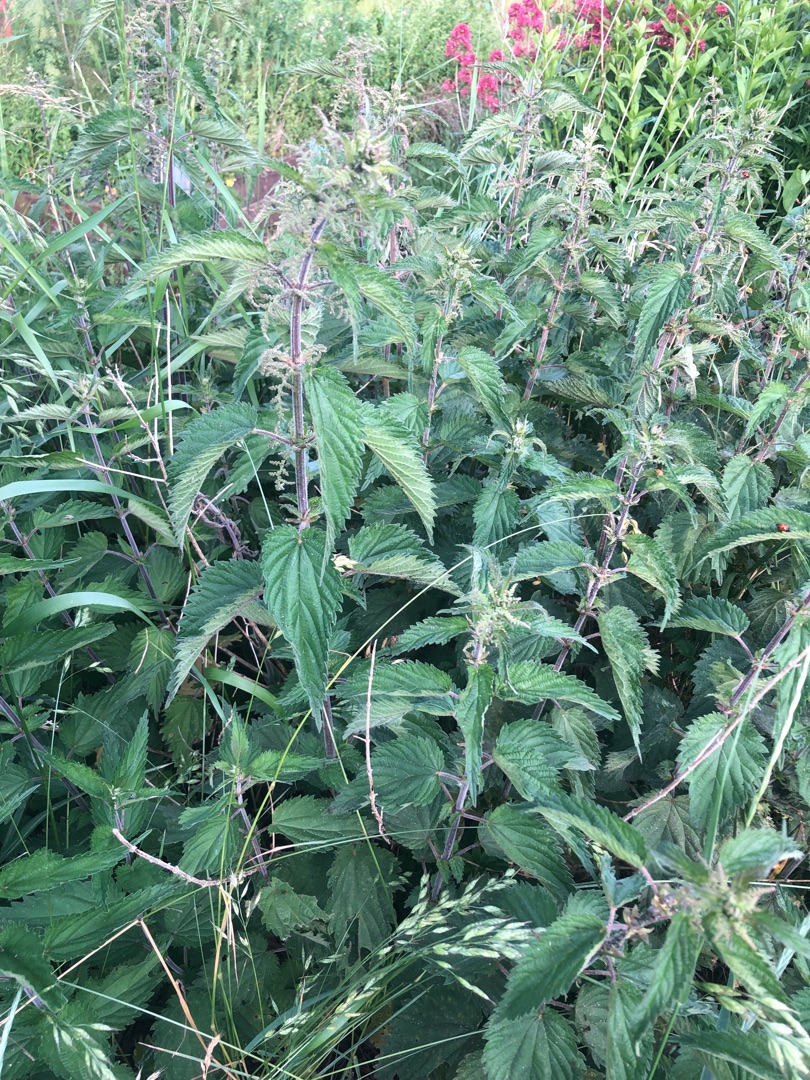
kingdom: Plantae
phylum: Tracheophyta
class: Magnoliopsida
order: Rosales
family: Urticaceae
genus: Urtica
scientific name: Urtica dioica
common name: Stor nælde
